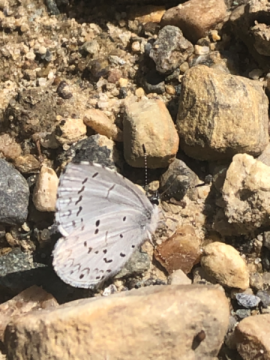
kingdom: Animalia
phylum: Arthropoda
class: Insecta
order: Lepidoptera
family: Lycaenidae
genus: Celastrina
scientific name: Celastrina lucia
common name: Northern Spring Azure
